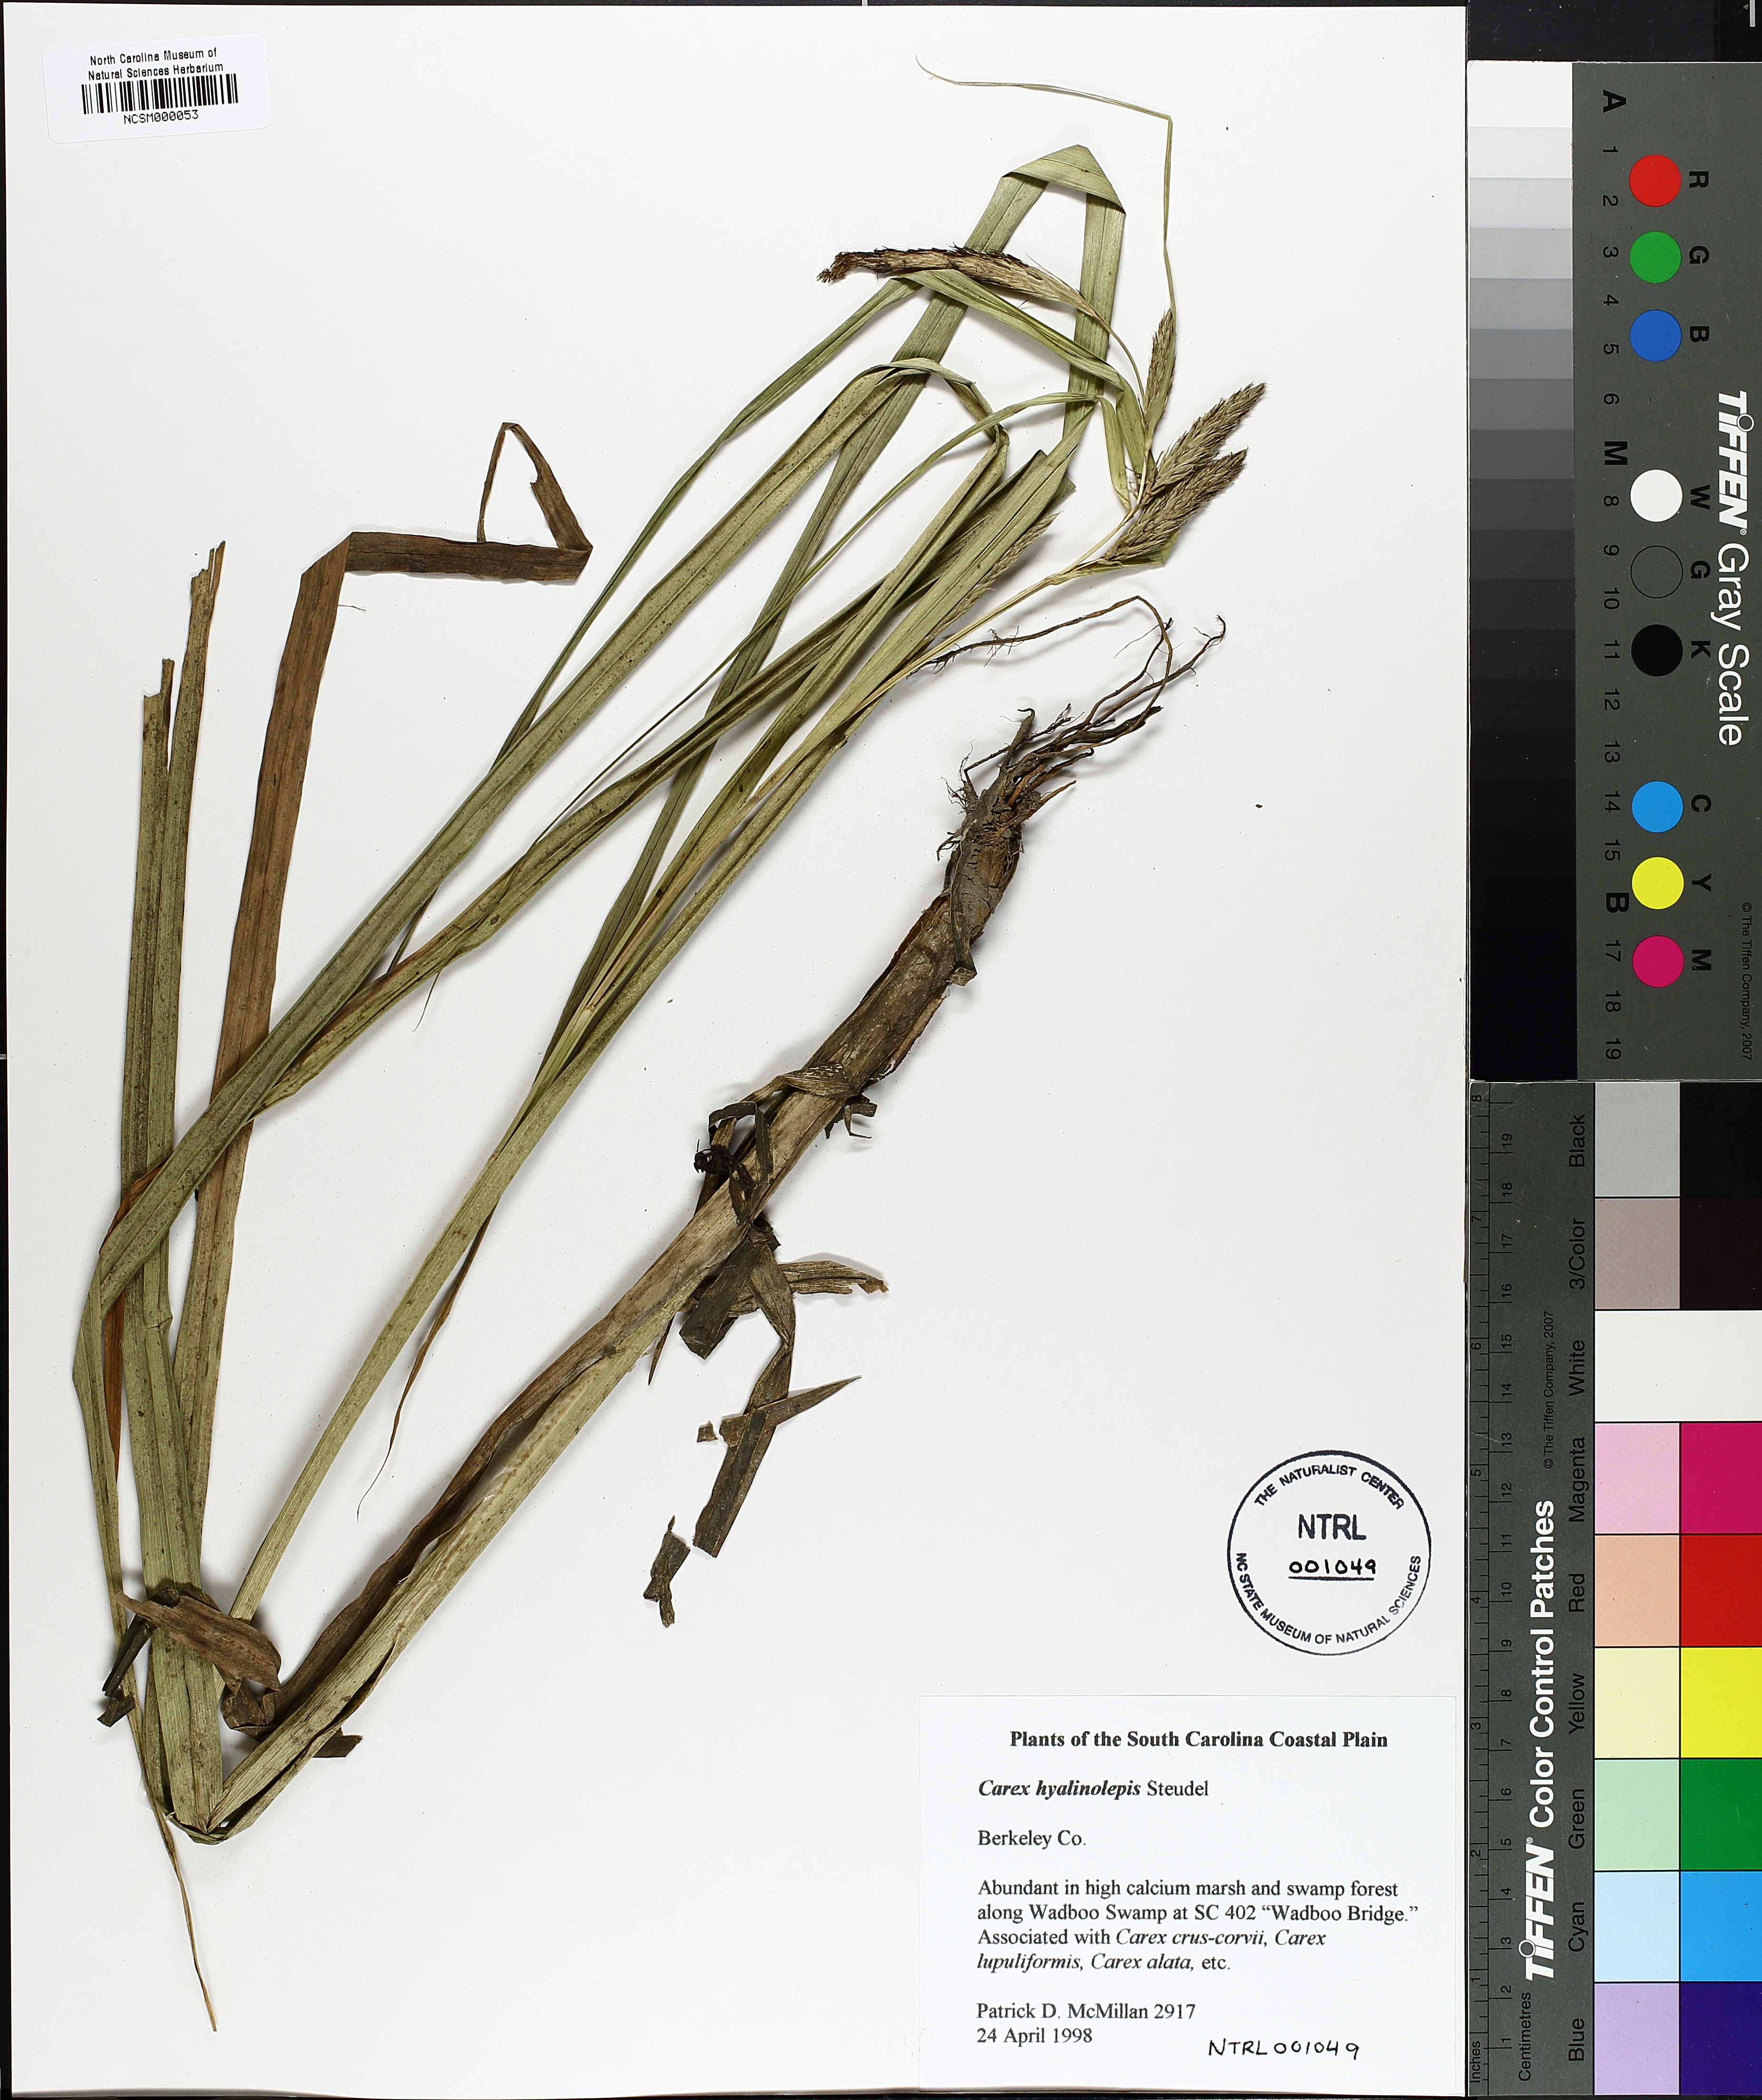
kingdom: Plantae
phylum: Tracheophyta
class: Liliopsida
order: Poales
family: Cyperaceae
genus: Carex
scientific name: Carex hyalinolepis
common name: Shoreline sedge
